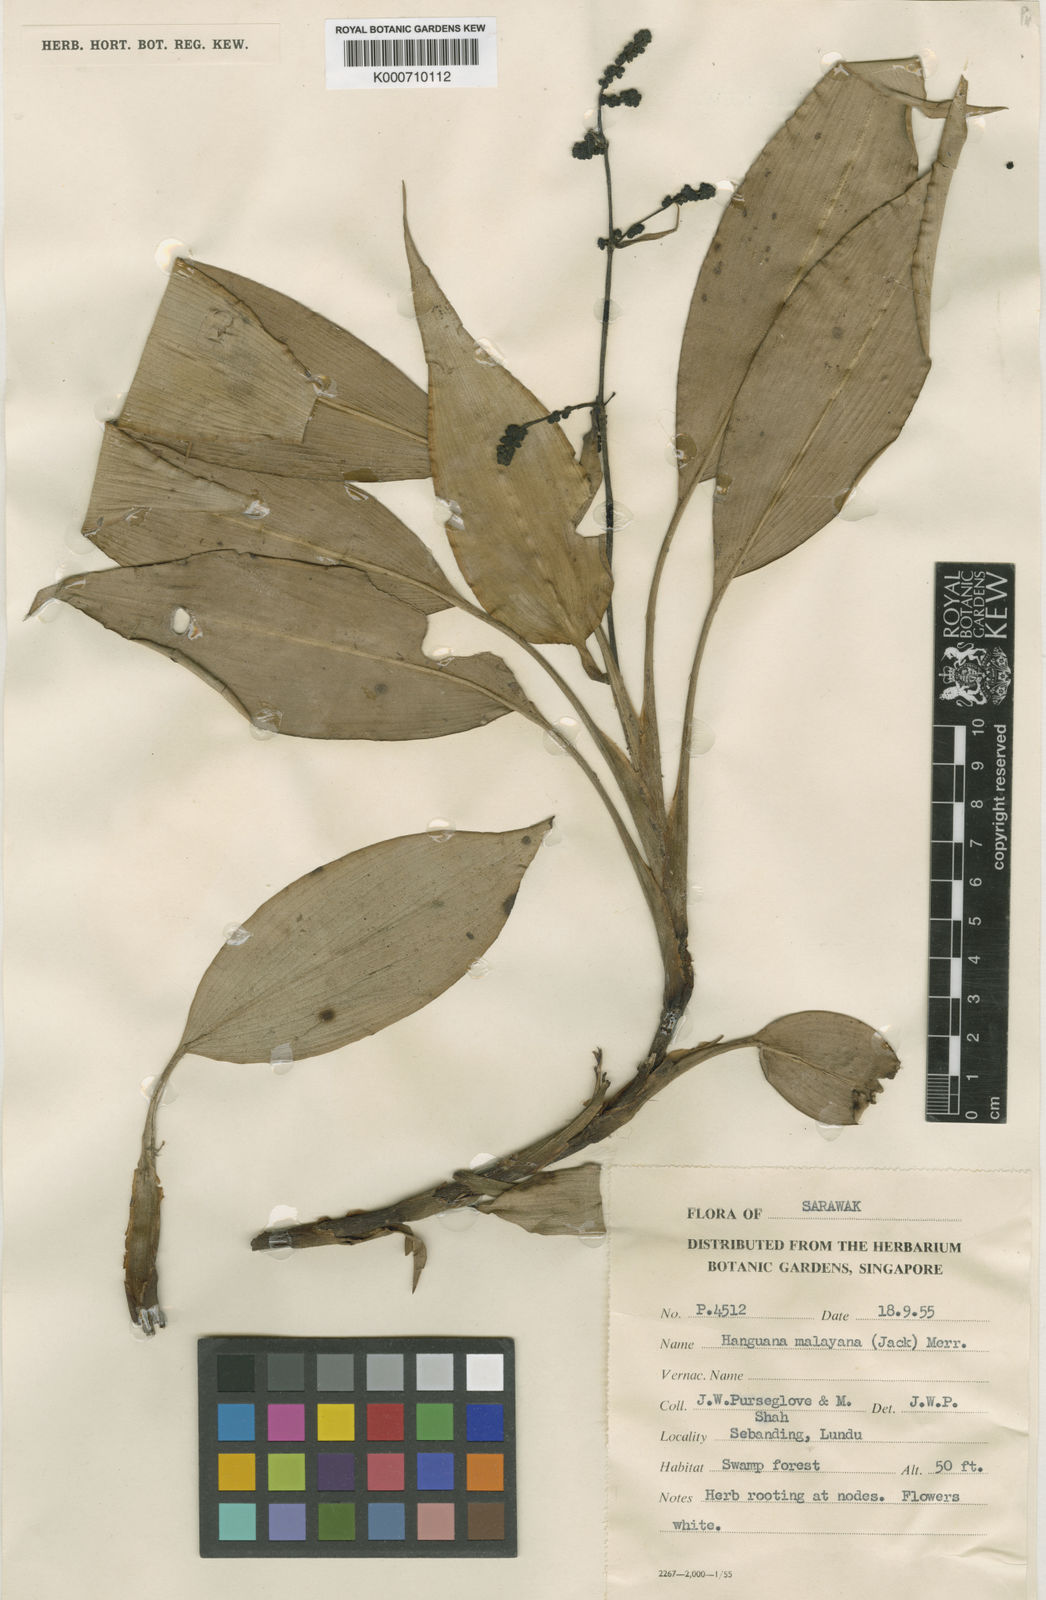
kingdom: Plantae
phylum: Tracheophyta
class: Liliopsida
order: Commelinales
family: Hanguanaceae
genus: Hanguana
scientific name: Hanguana malayana
